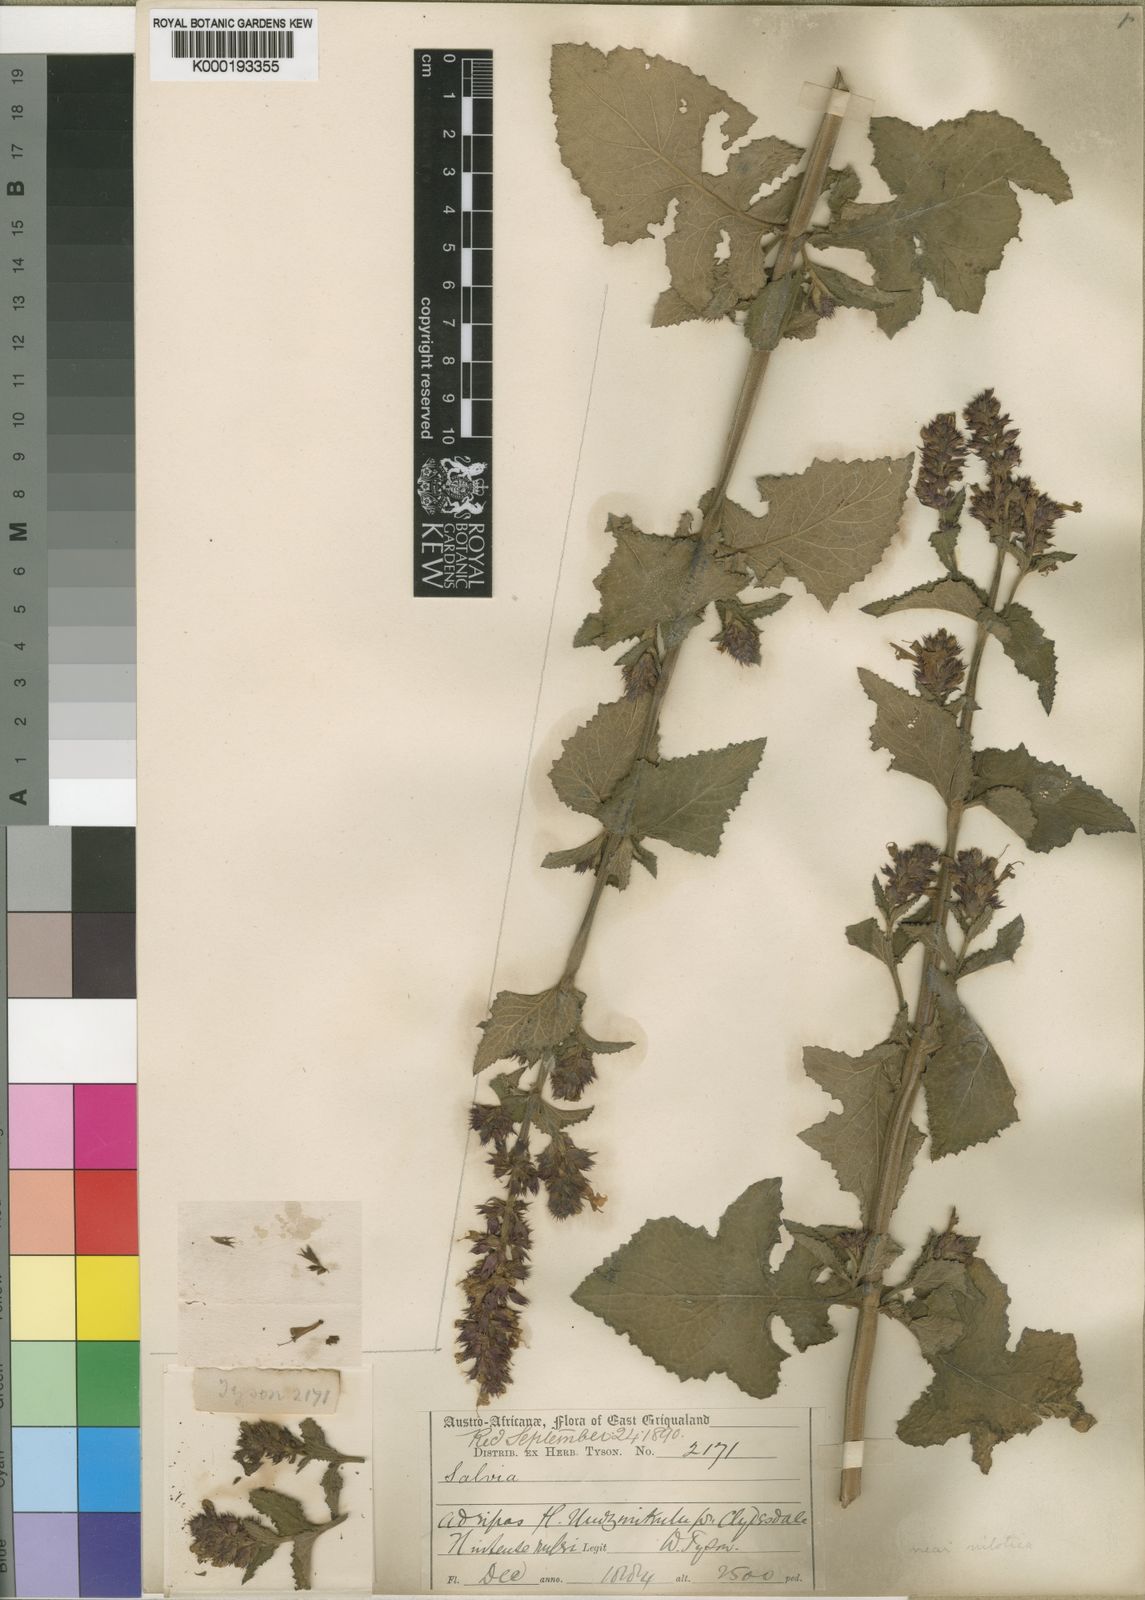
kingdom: Plantae
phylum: Tracheophyta
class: Magnoliopsida
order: Lamiales
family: Lamiaceae
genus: Salvia
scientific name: Salvia tysonii
